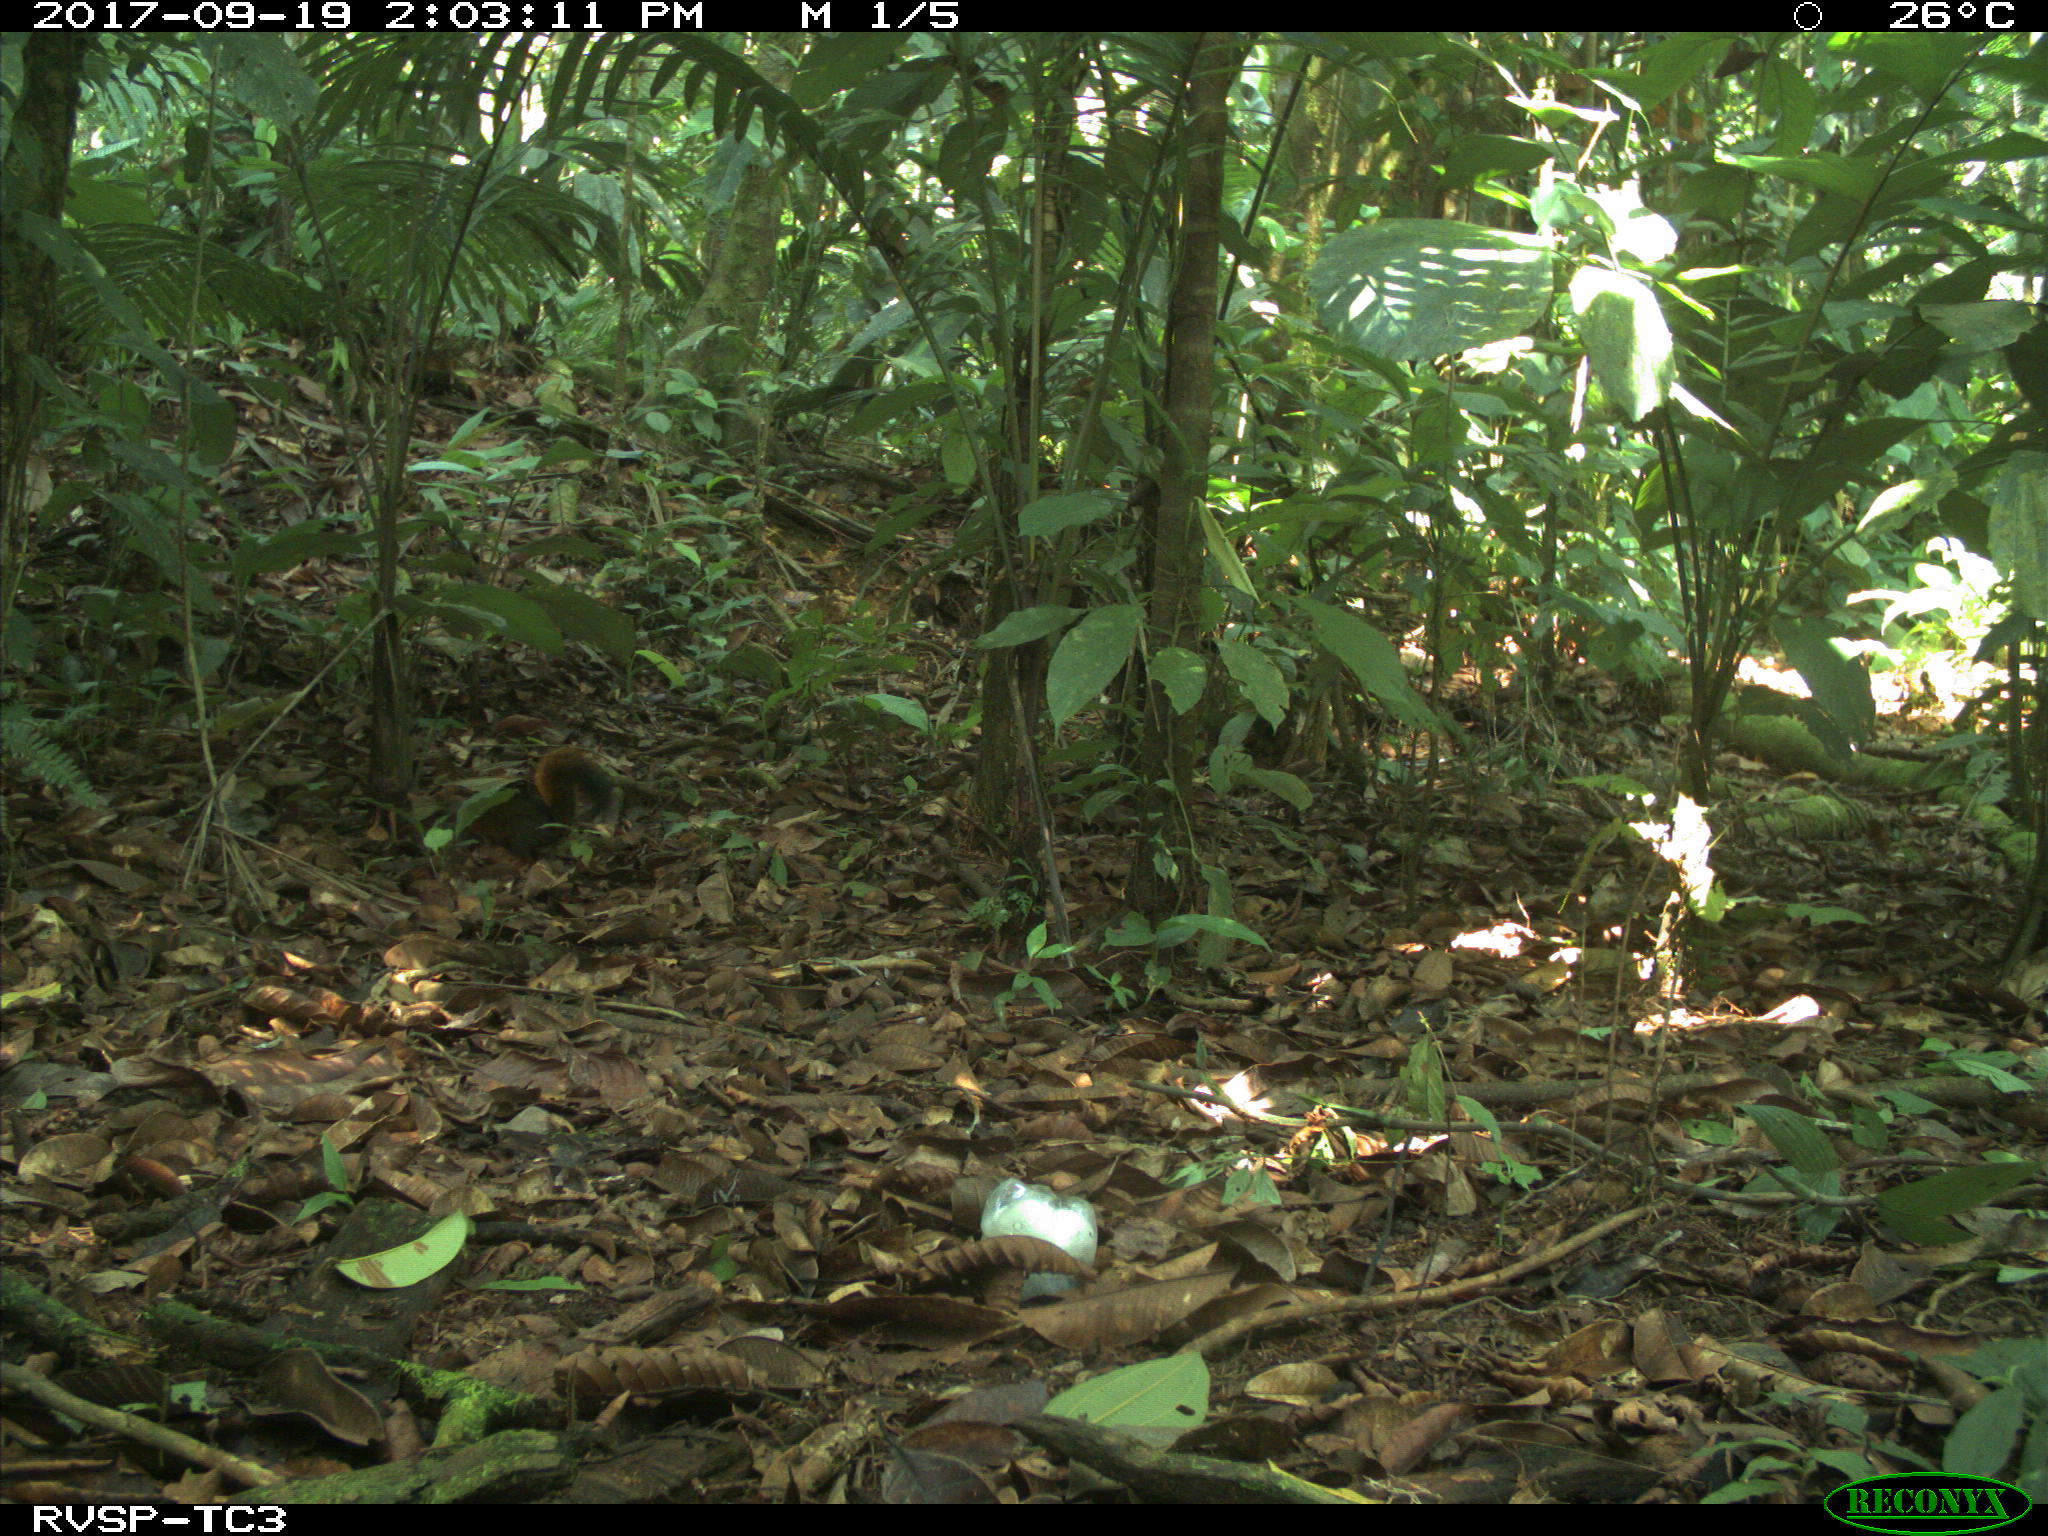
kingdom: Animalia
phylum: Chordata
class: Mammalia
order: Rodentia
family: Sciuridae
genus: Sciurus
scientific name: Sciurus granatensis
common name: Red-tailed squirrel
